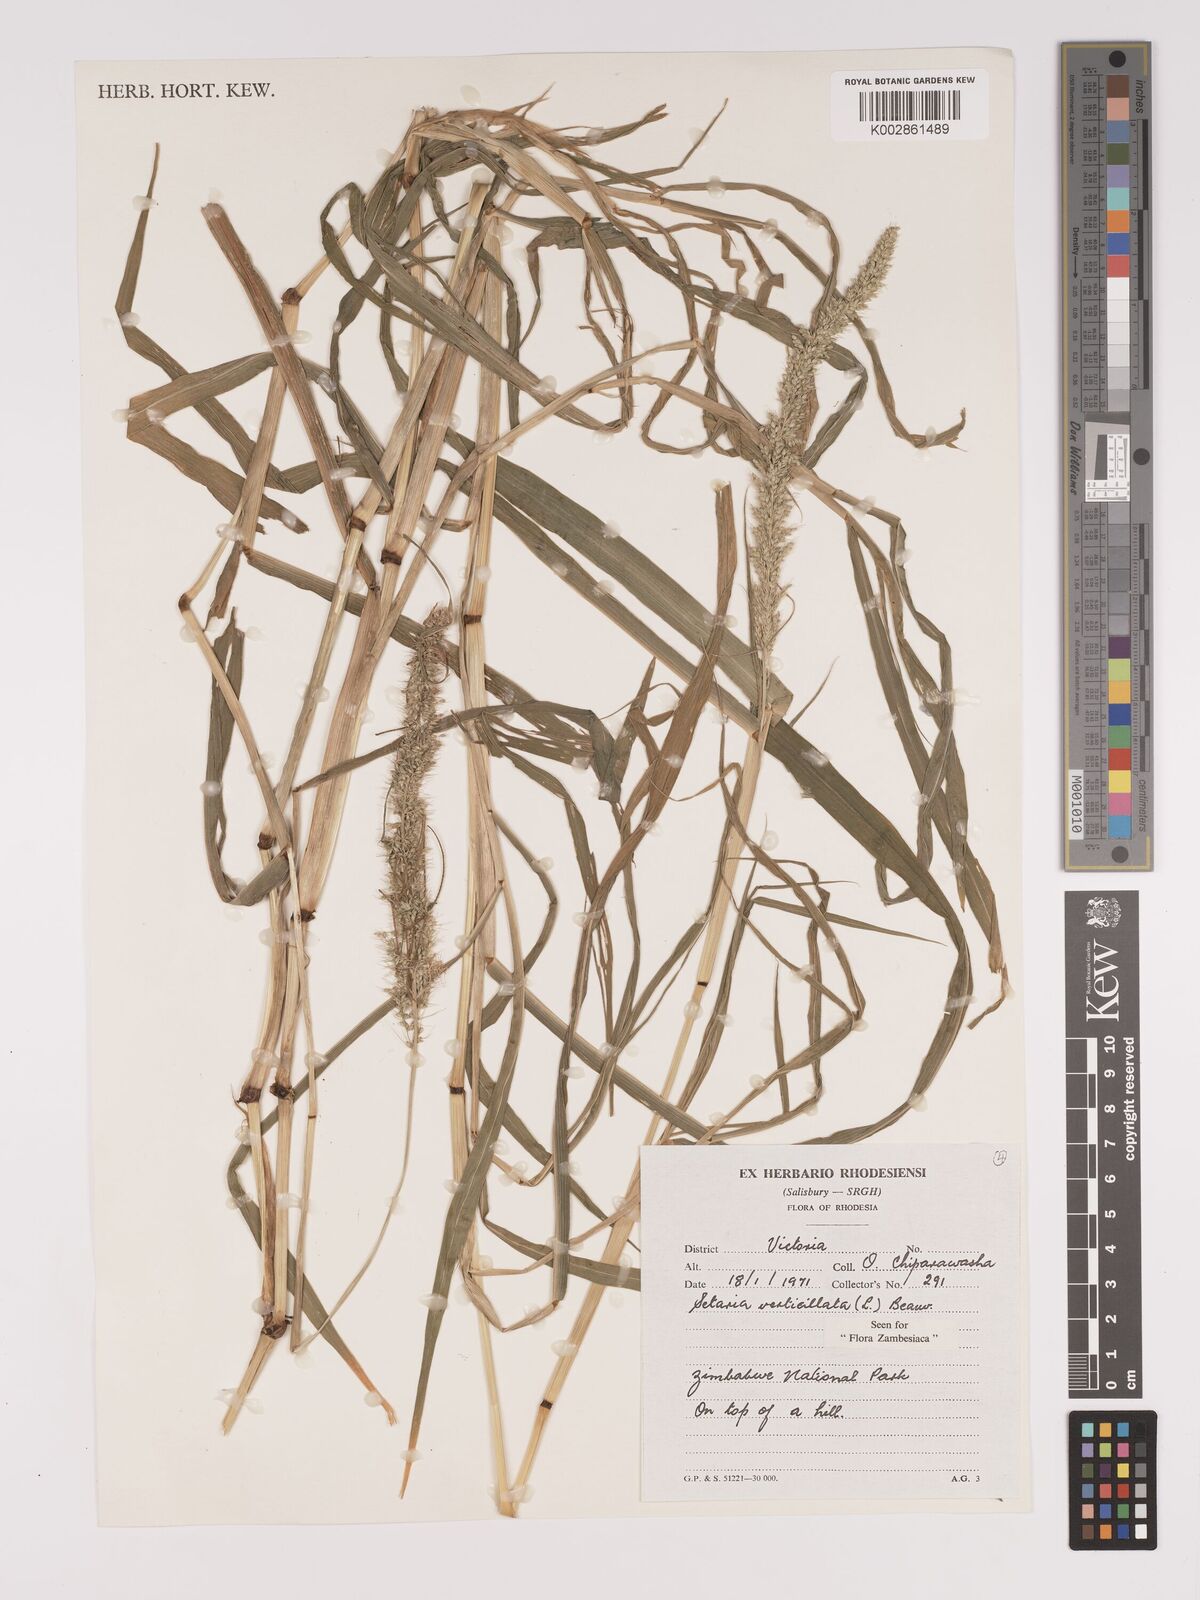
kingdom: Plantae
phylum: Tracheophyta
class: Liliopsida
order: Poales
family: Poaceae
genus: Setaria
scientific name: Setaria verticillata
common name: Hooked bristlegrass
